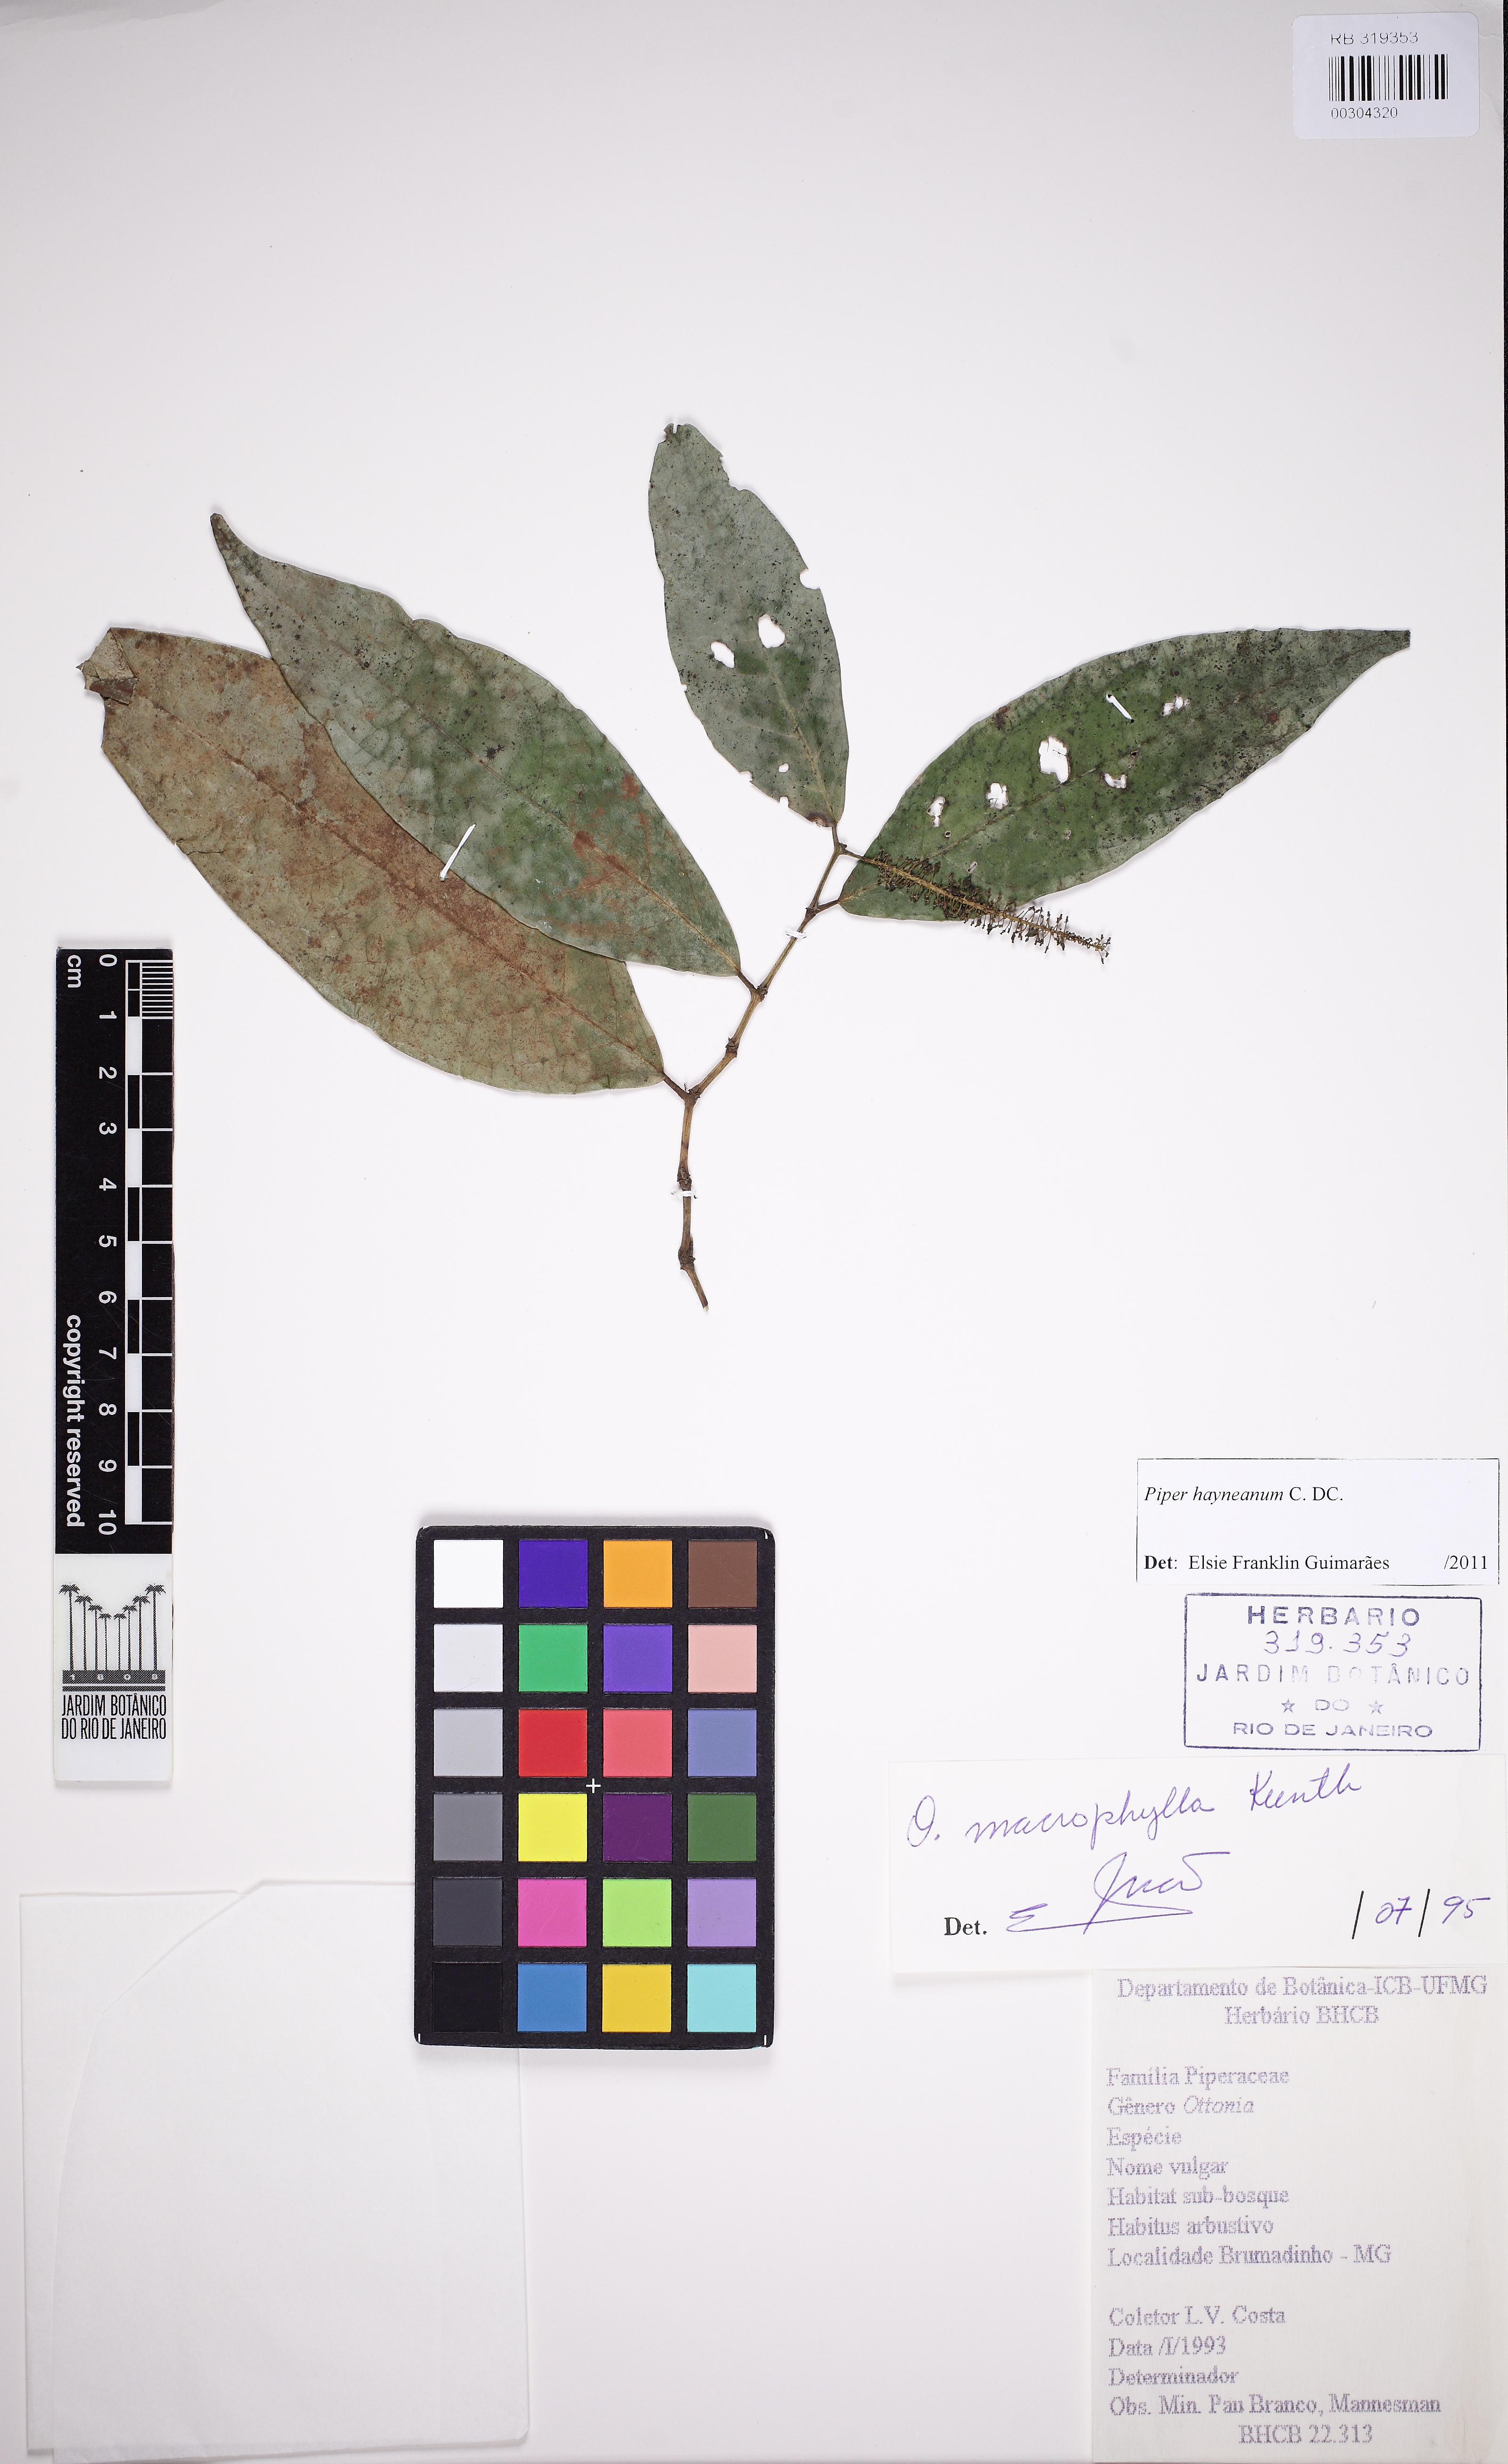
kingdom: Plantae
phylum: Tracheophyta
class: Magnoliopsida
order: Piperales
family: Piperaceae
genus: Piper
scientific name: Piper hayneanum
